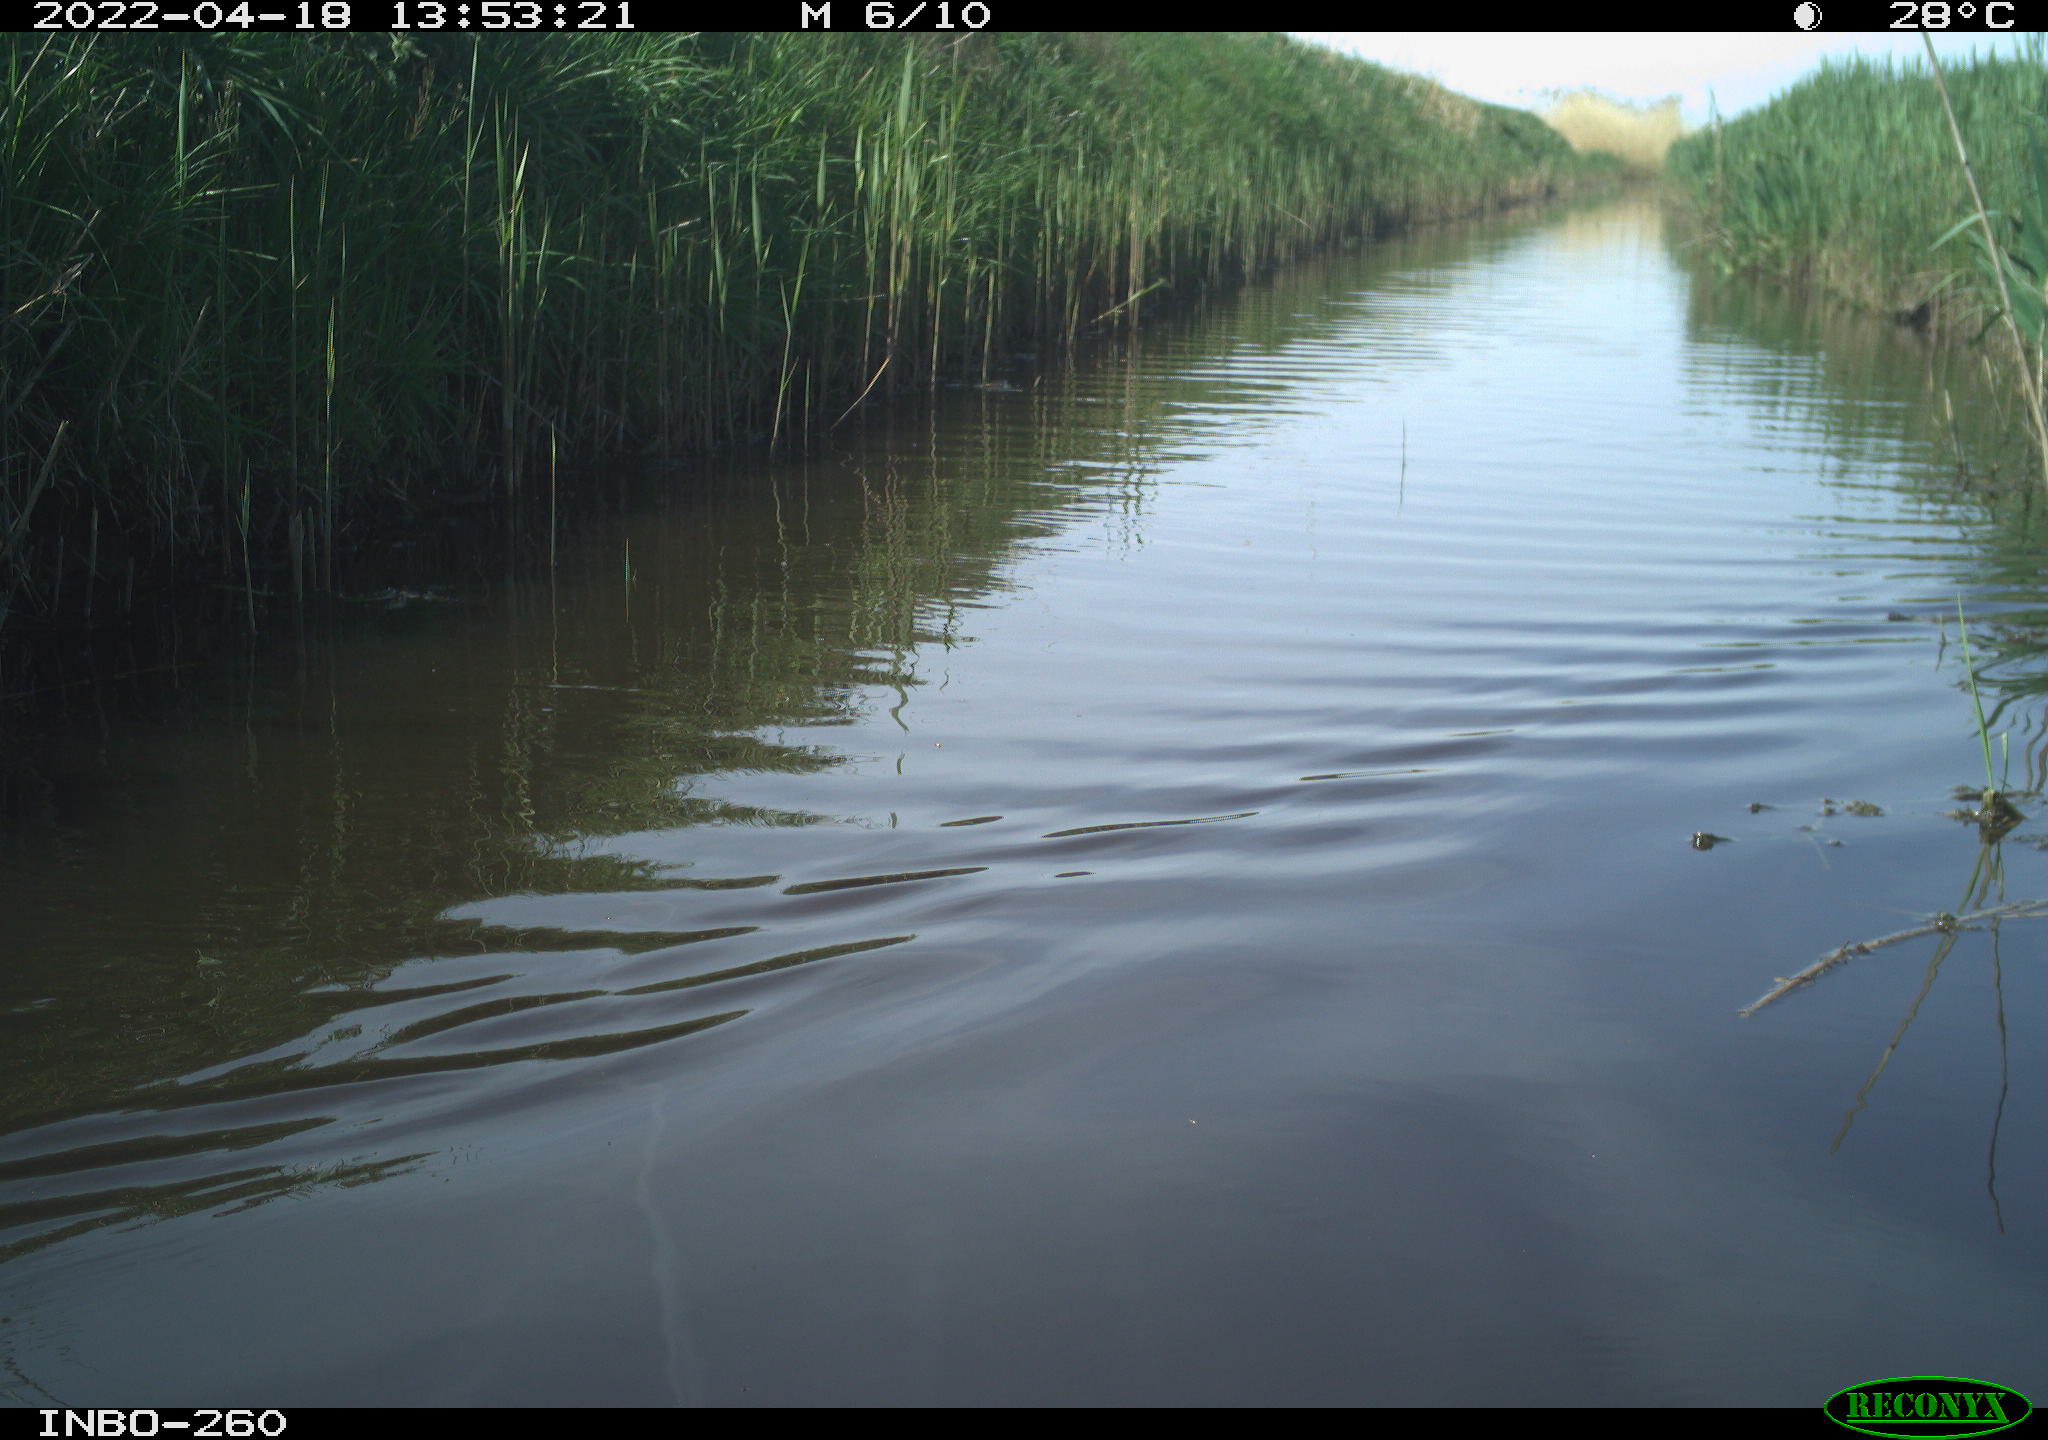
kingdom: Animalia
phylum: Chordata
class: Aves
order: Gruiformes
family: Rallidae
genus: Fulica
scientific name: Fulica atra
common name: Eurasian coot
